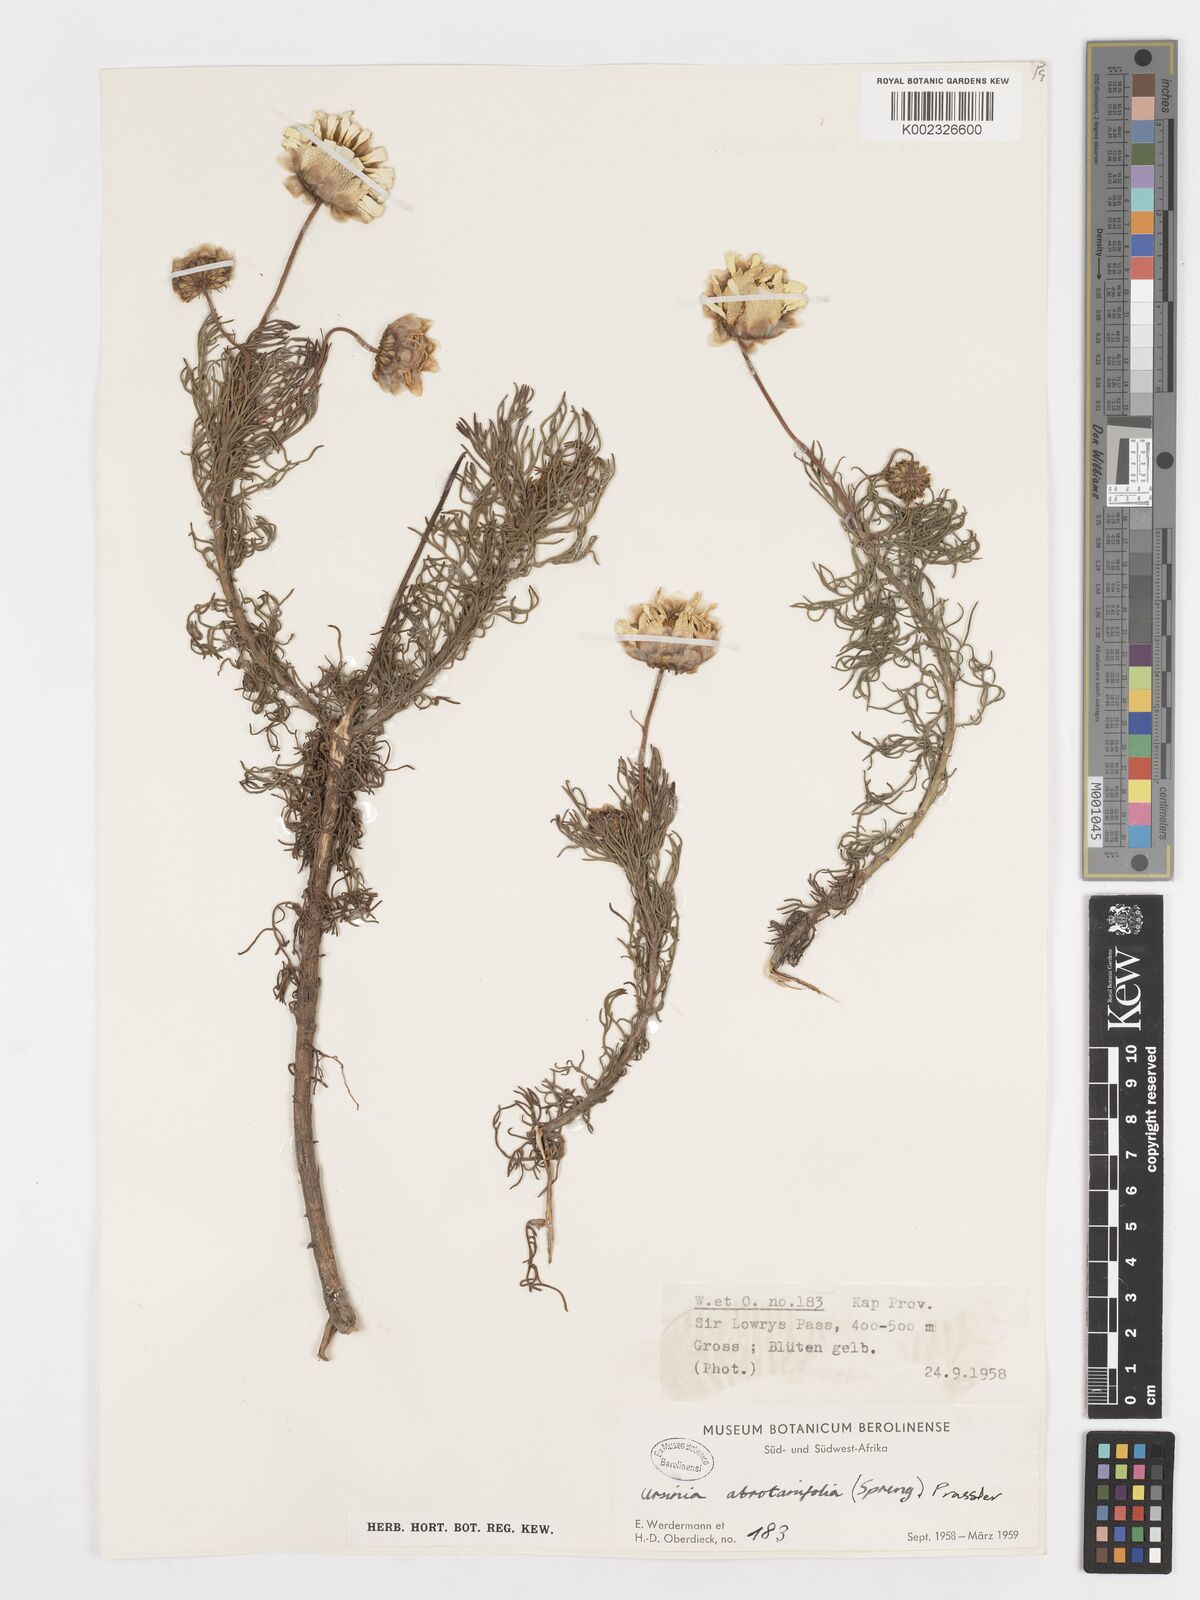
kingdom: Plantae
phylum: Tracheophyta
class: Magnoliopsida
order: Asterales
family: Asteraceae
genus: Ursinia
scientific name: Ursinia abrotanifolia
